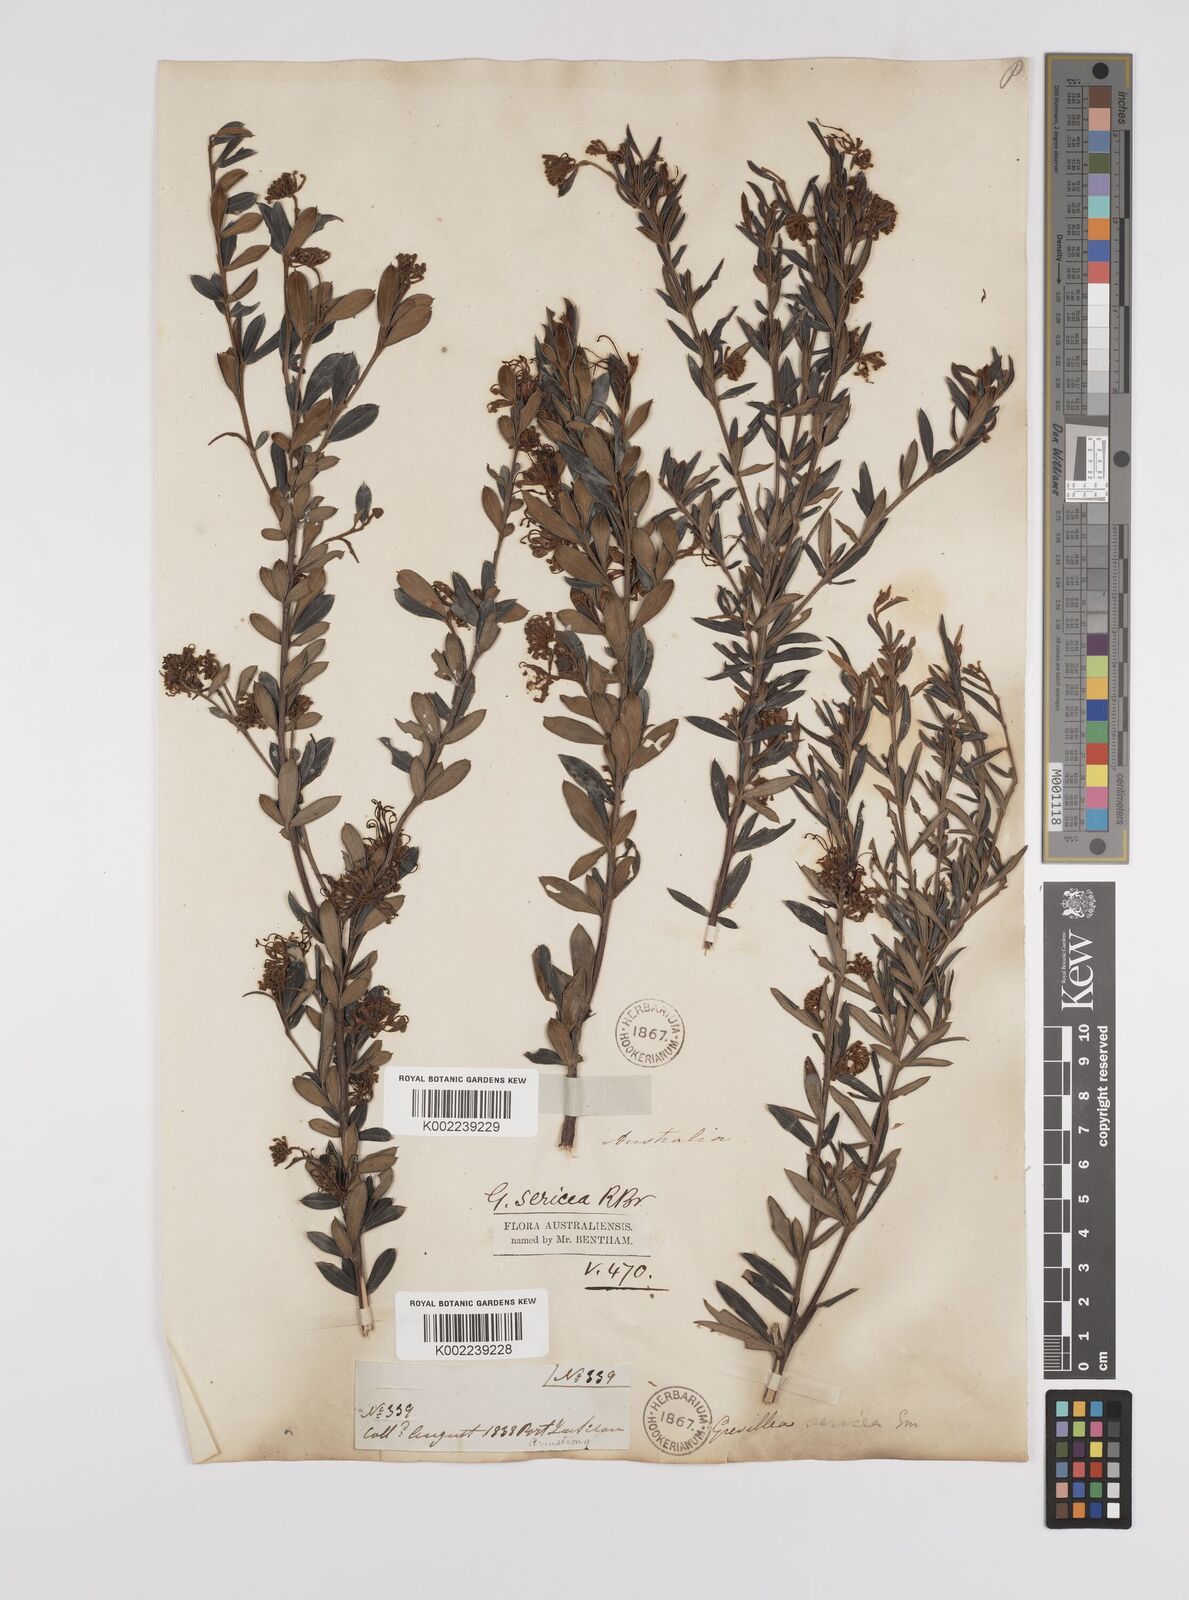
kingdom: Plantae
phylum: Tracheophyta
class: Magnoliopsida
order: Proteales
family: Proteaceae
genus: Grevillea
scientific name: Grevillea sericea
